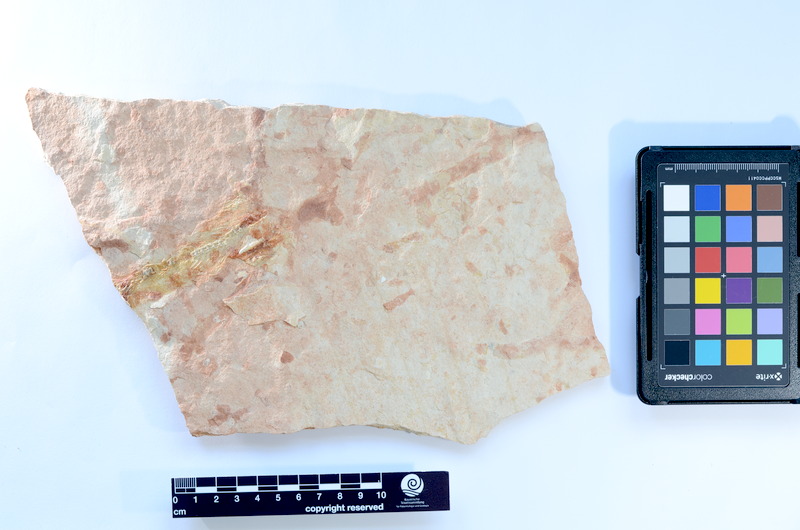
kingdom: Animalia
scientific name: Animalia
